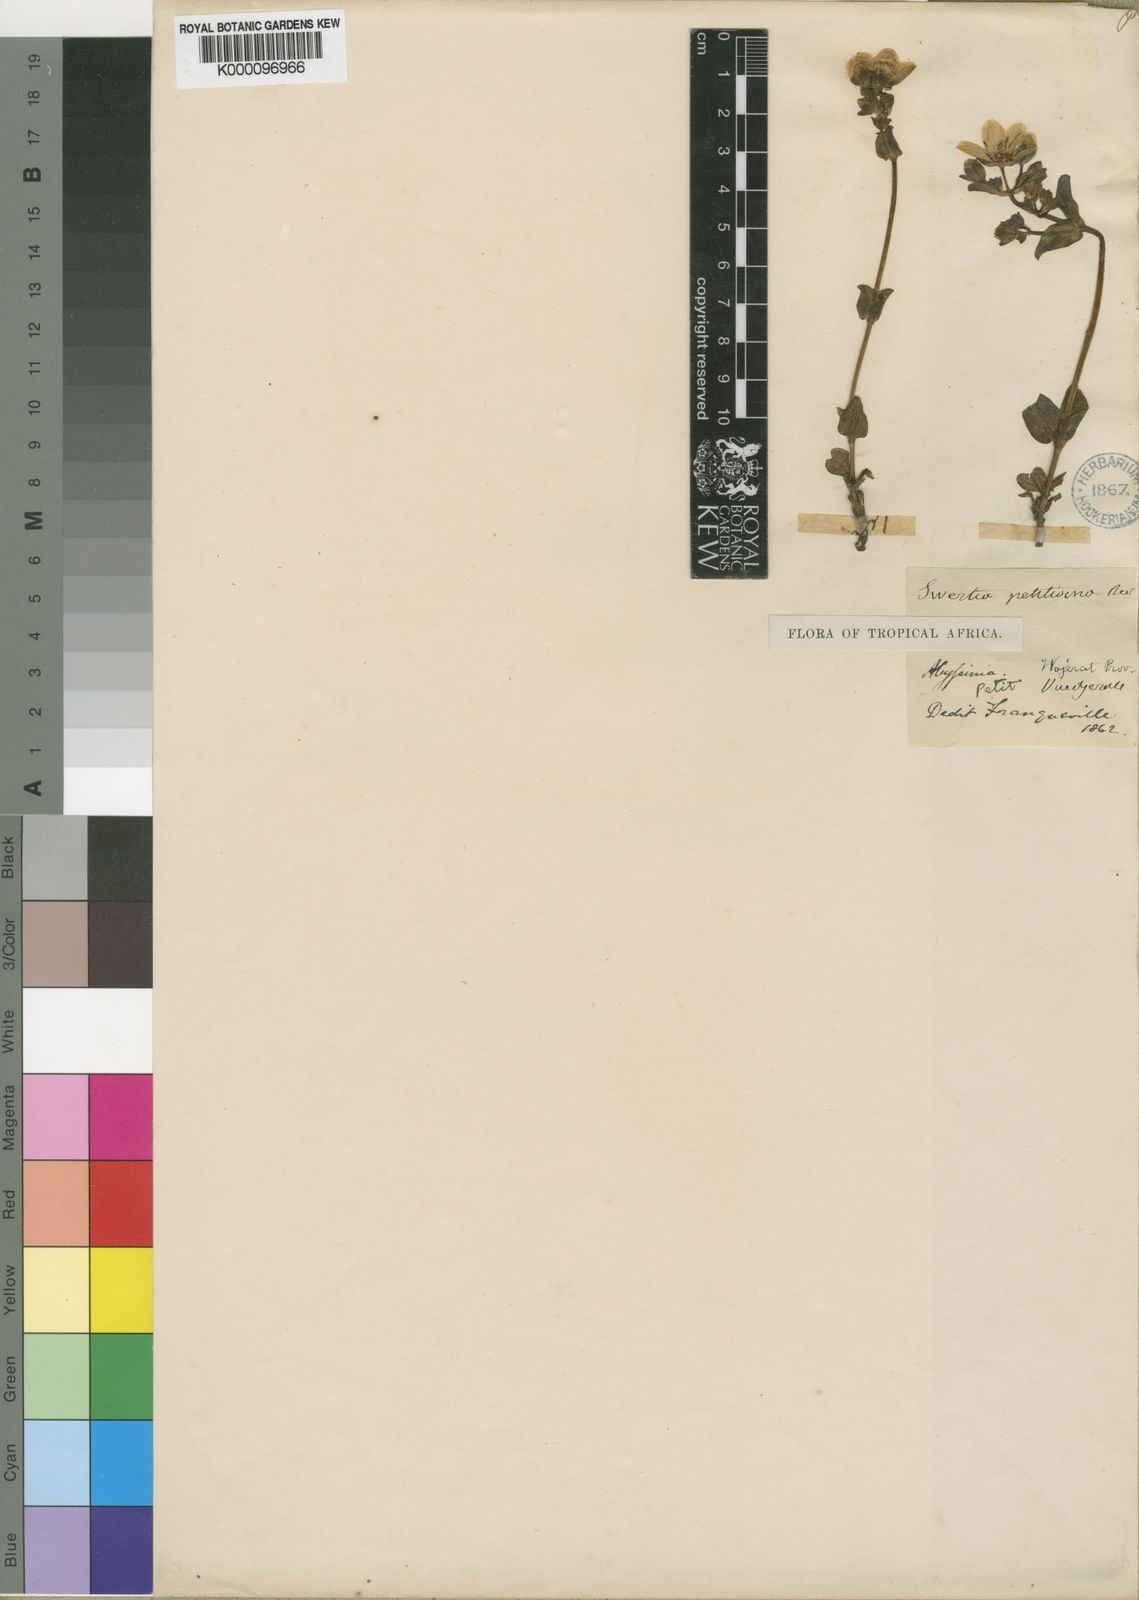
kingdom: Plantae
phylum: Tracheophyta
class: Magnoliopsida
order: Gentianales
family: Gentianaceae
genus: Swertia
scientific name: Swertia pumila
